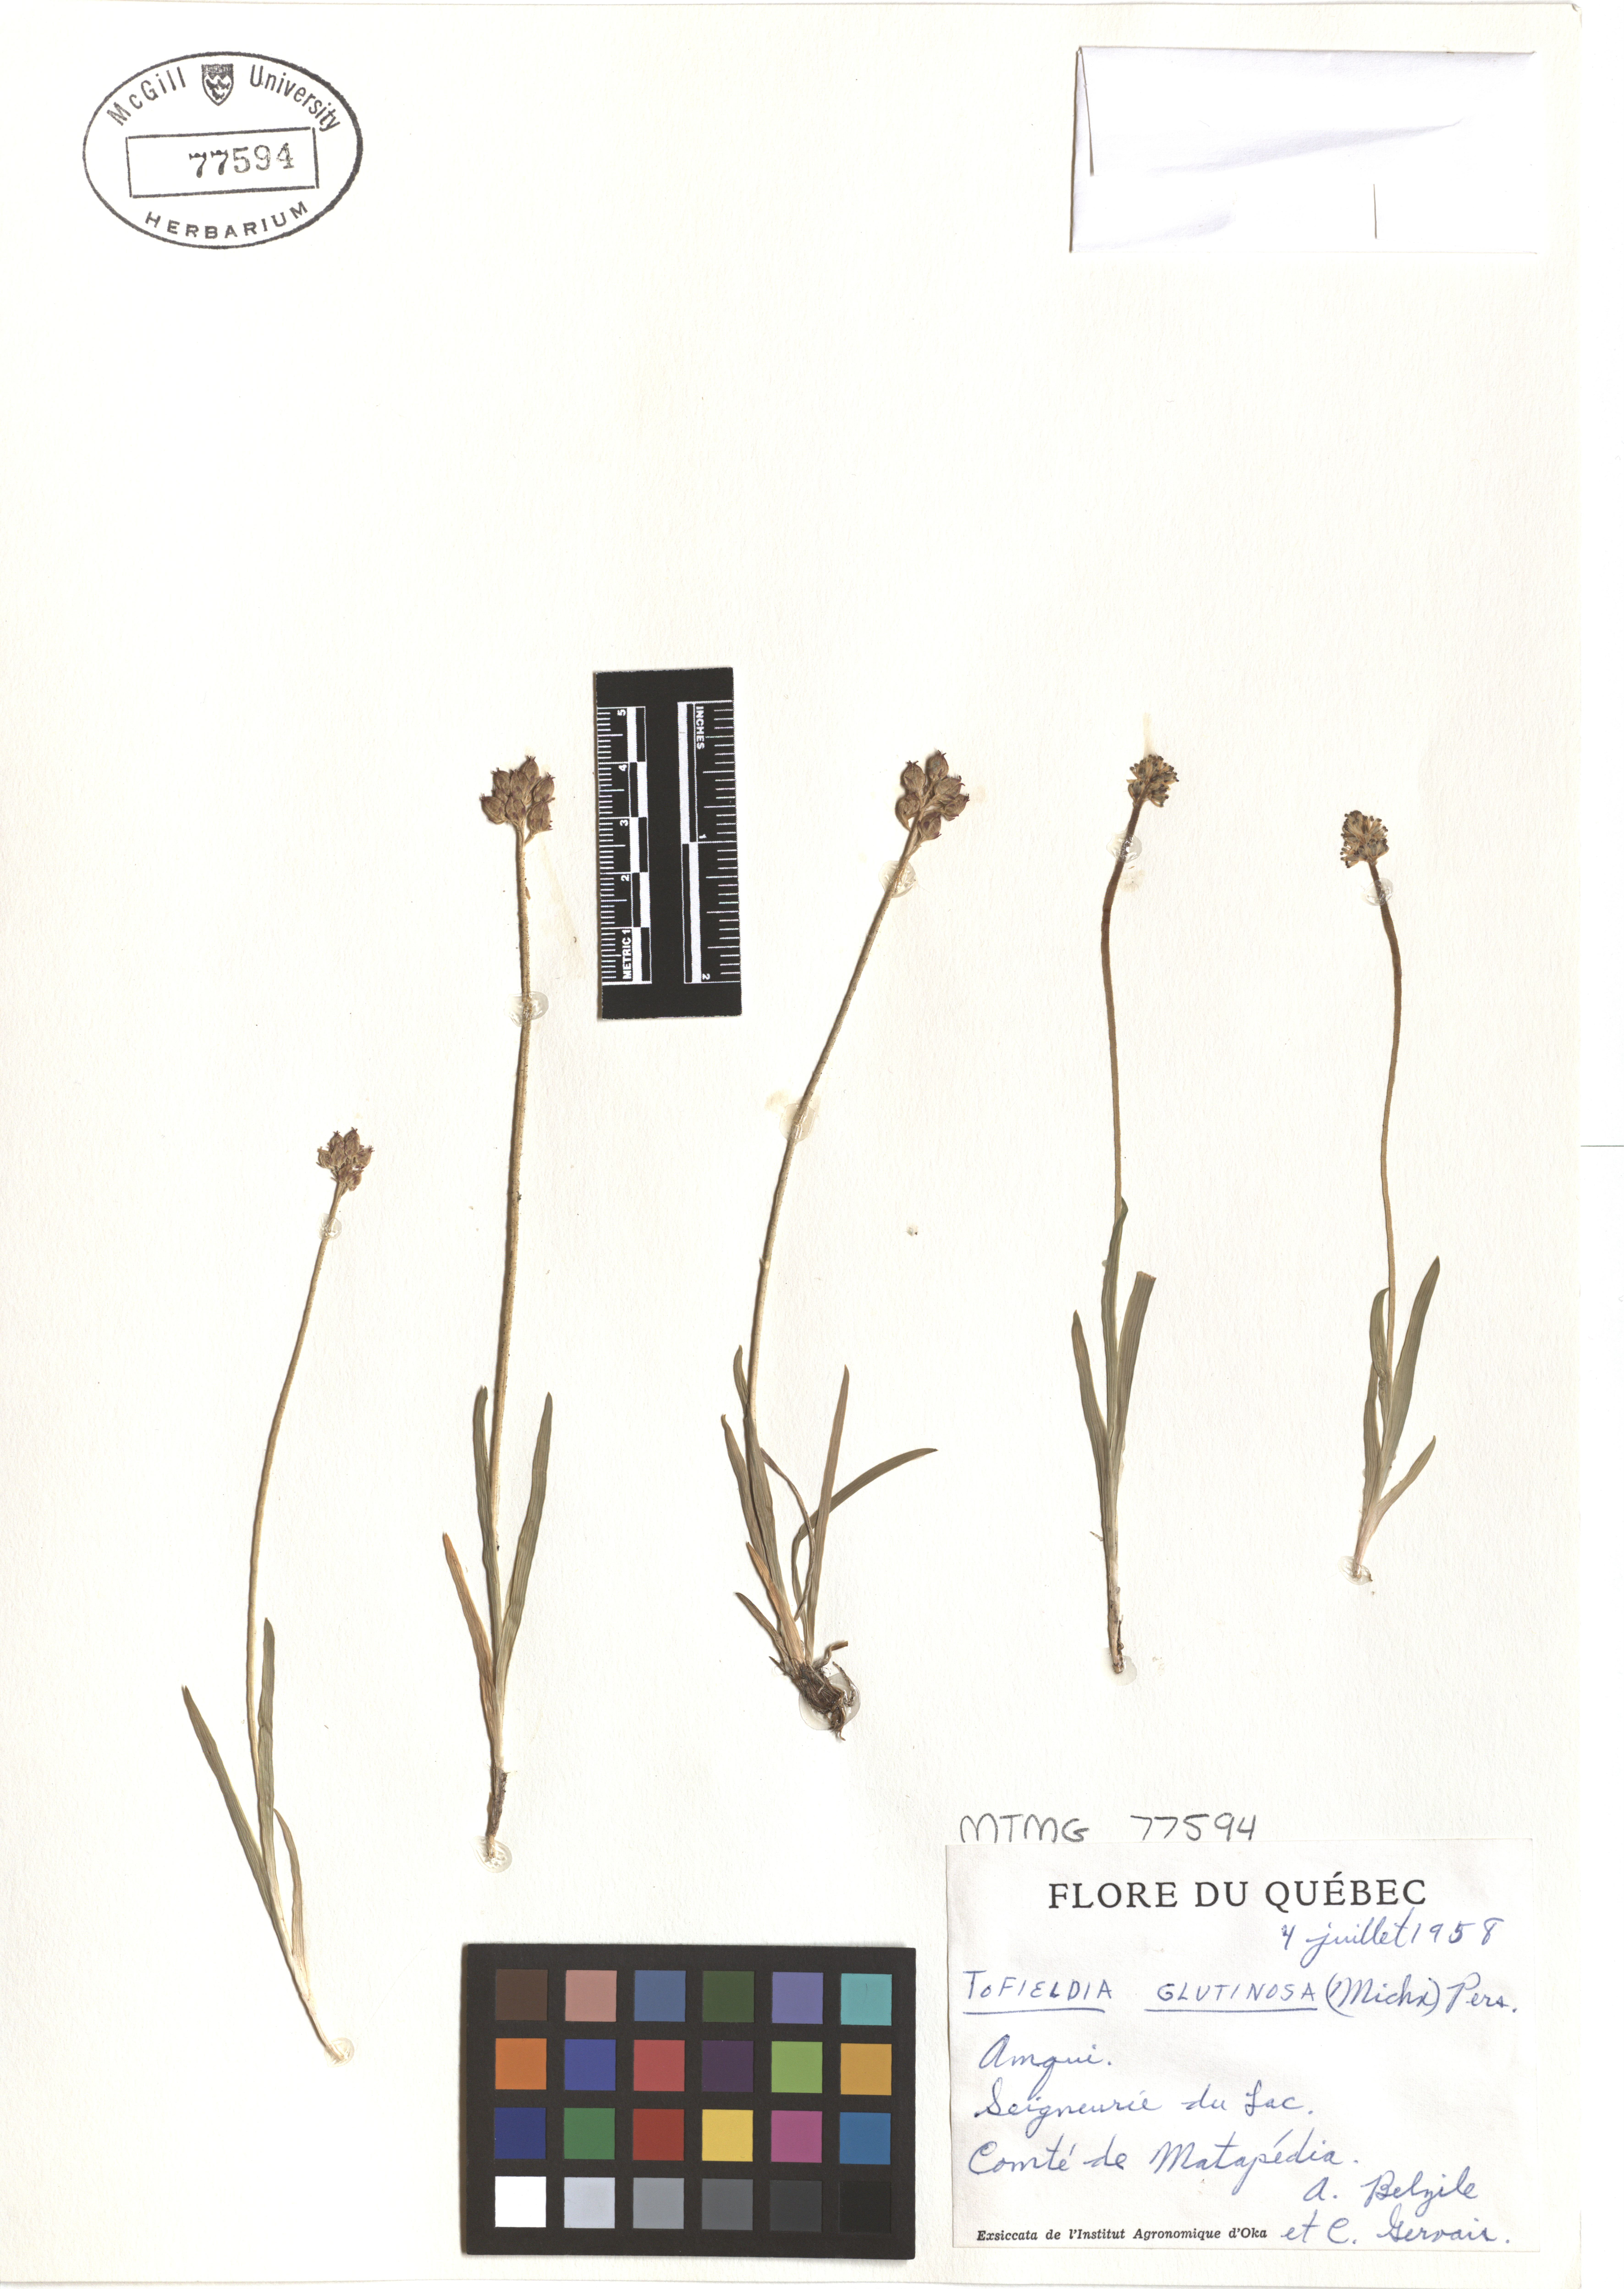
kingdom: Plantae
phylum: Tracheophyta
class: Liliopsida
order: Alismatales
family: Tofieldiaceae
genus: Triantha
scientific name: Triantha glutinosa
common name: Glutinous tofieldia
